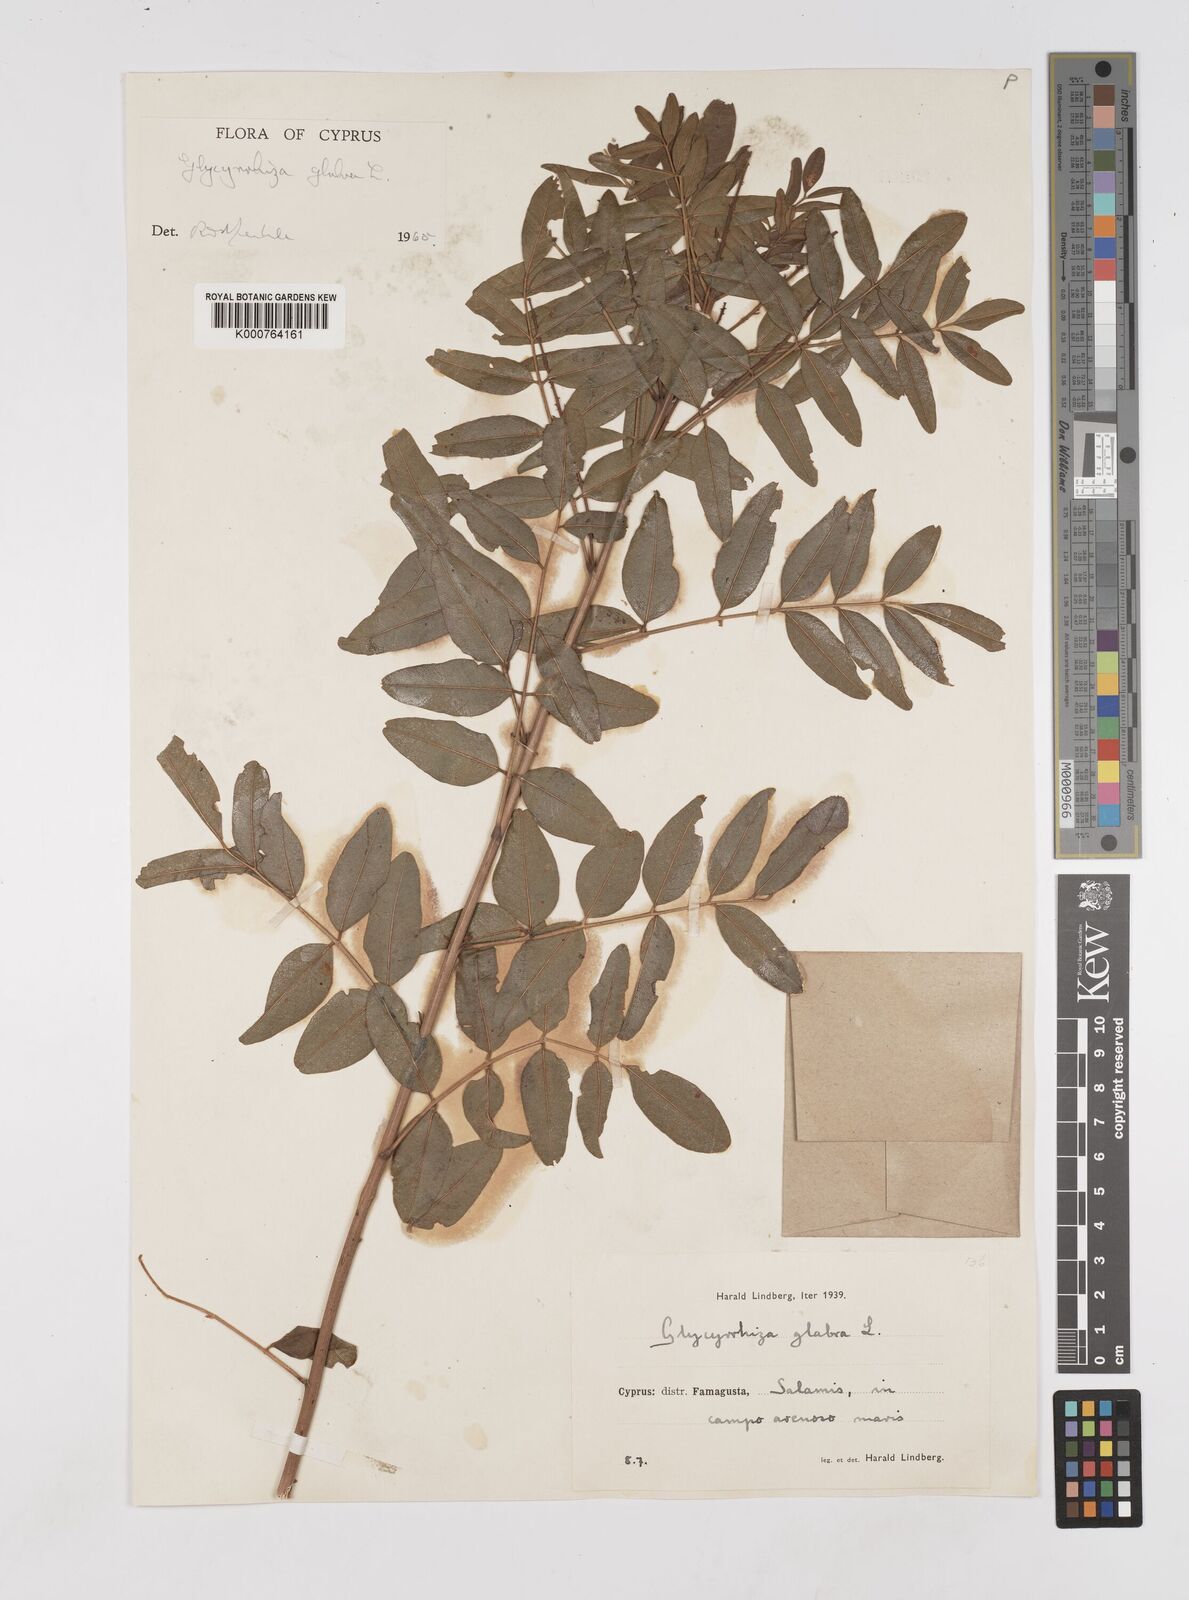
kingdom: Plantae
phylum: Tracheophyta
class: Magnoliopsida
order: Fabales
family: Fabaceae
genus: Glycyrrhiza
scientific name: Glycyrrhiza glabra
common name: Liquorice
